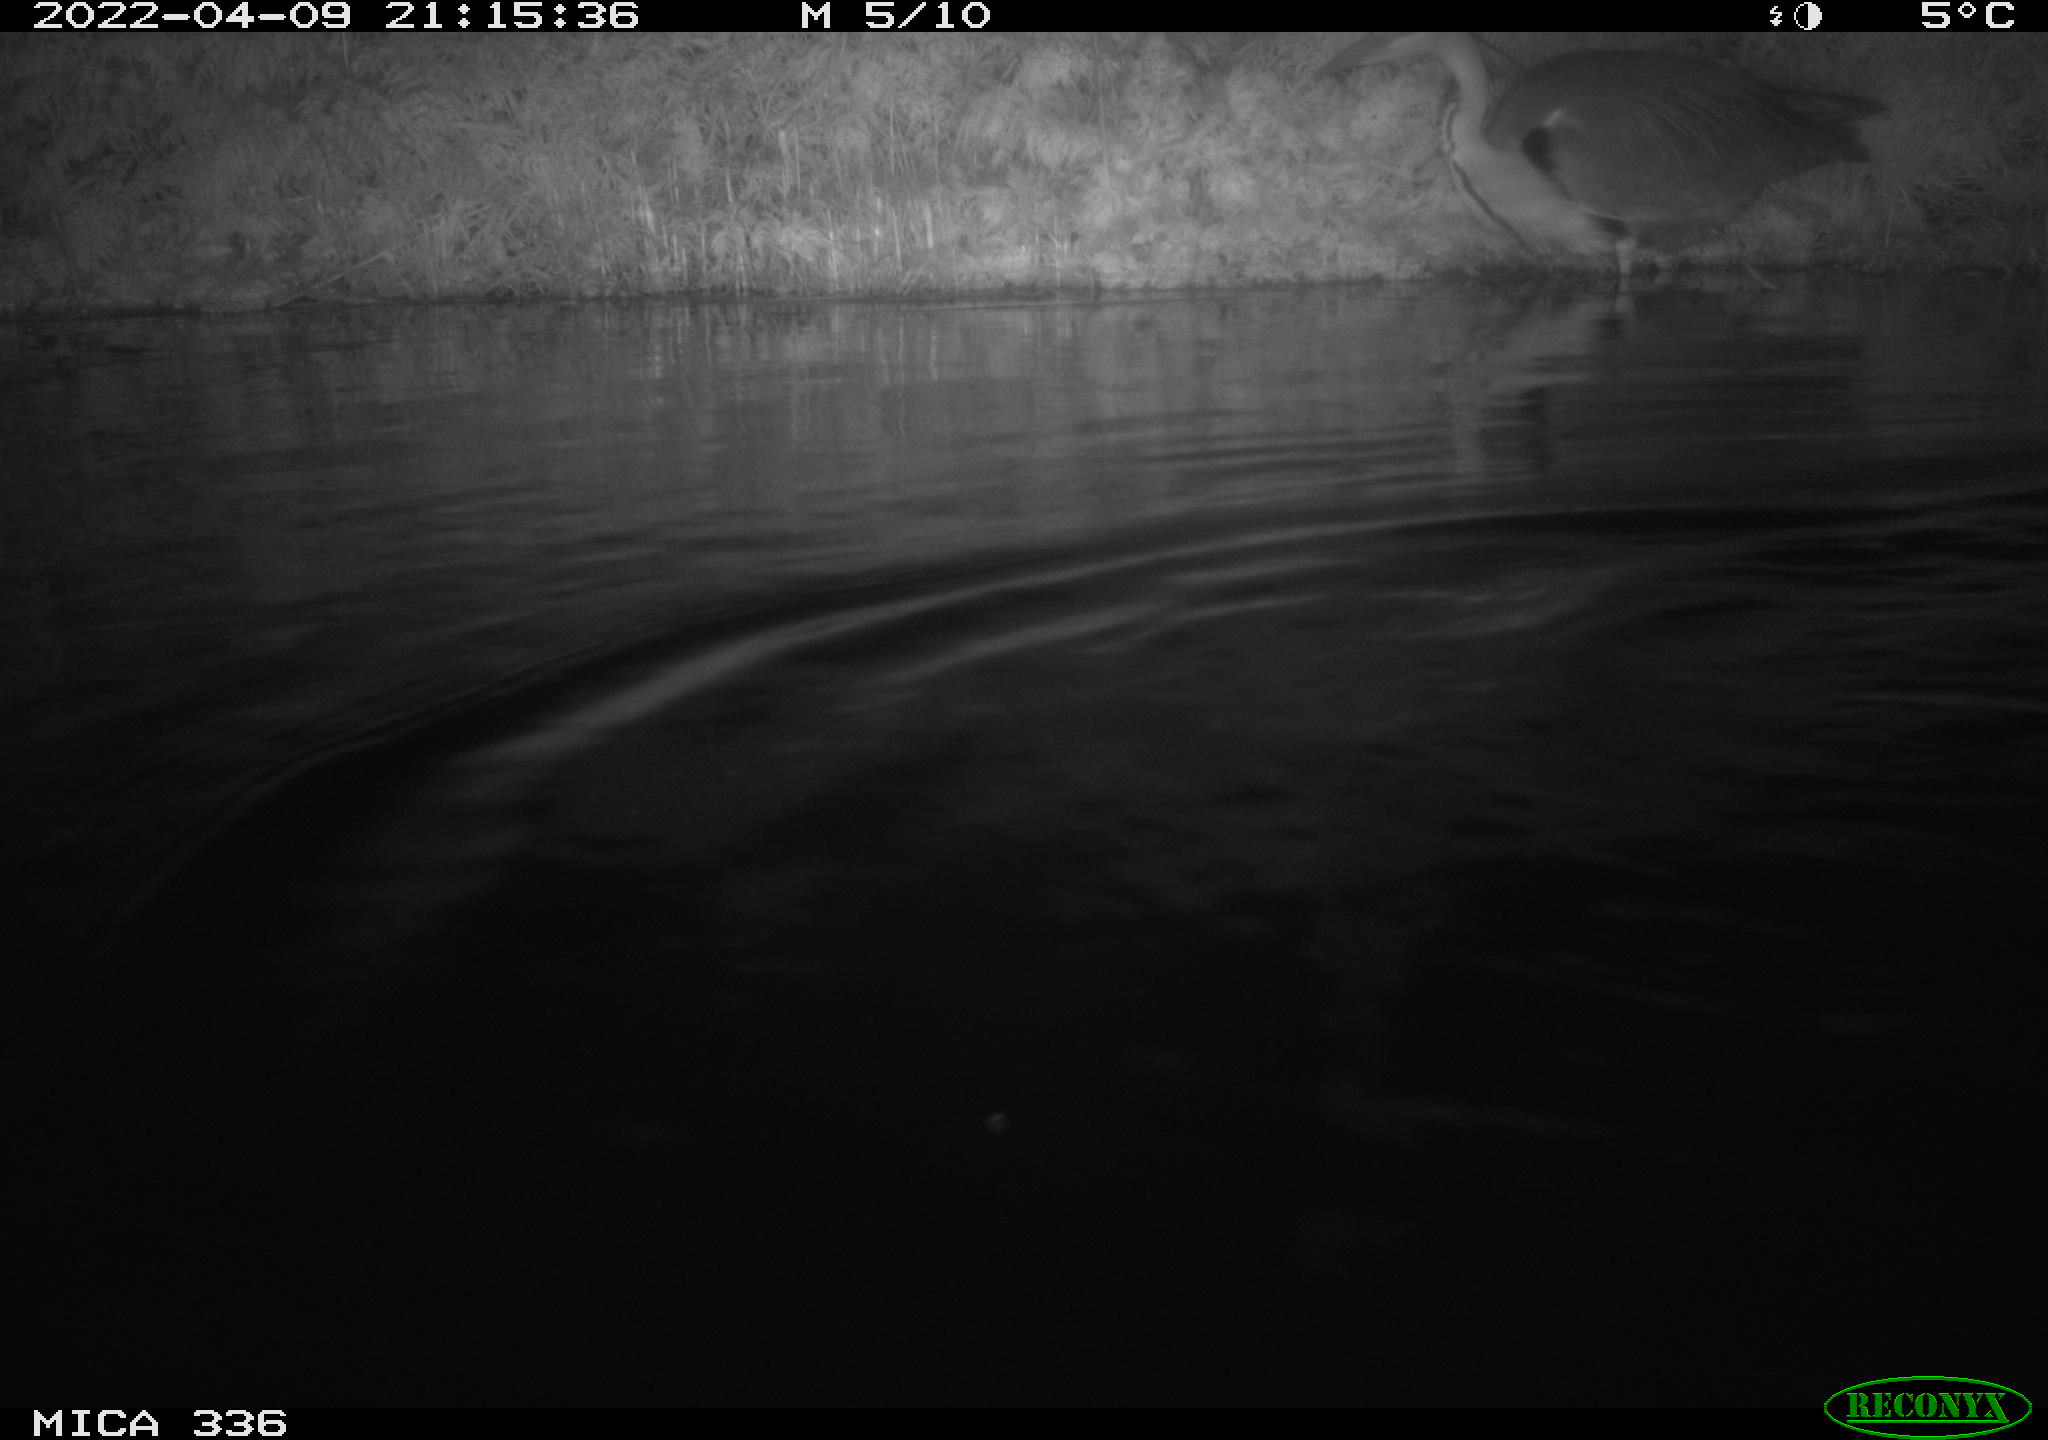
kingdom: Animalia
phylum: Chordata
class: Aves
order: Pelecaniformes
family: Ardeidae
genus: Ardea
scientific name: Ardea cinerea
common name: Grey heron
